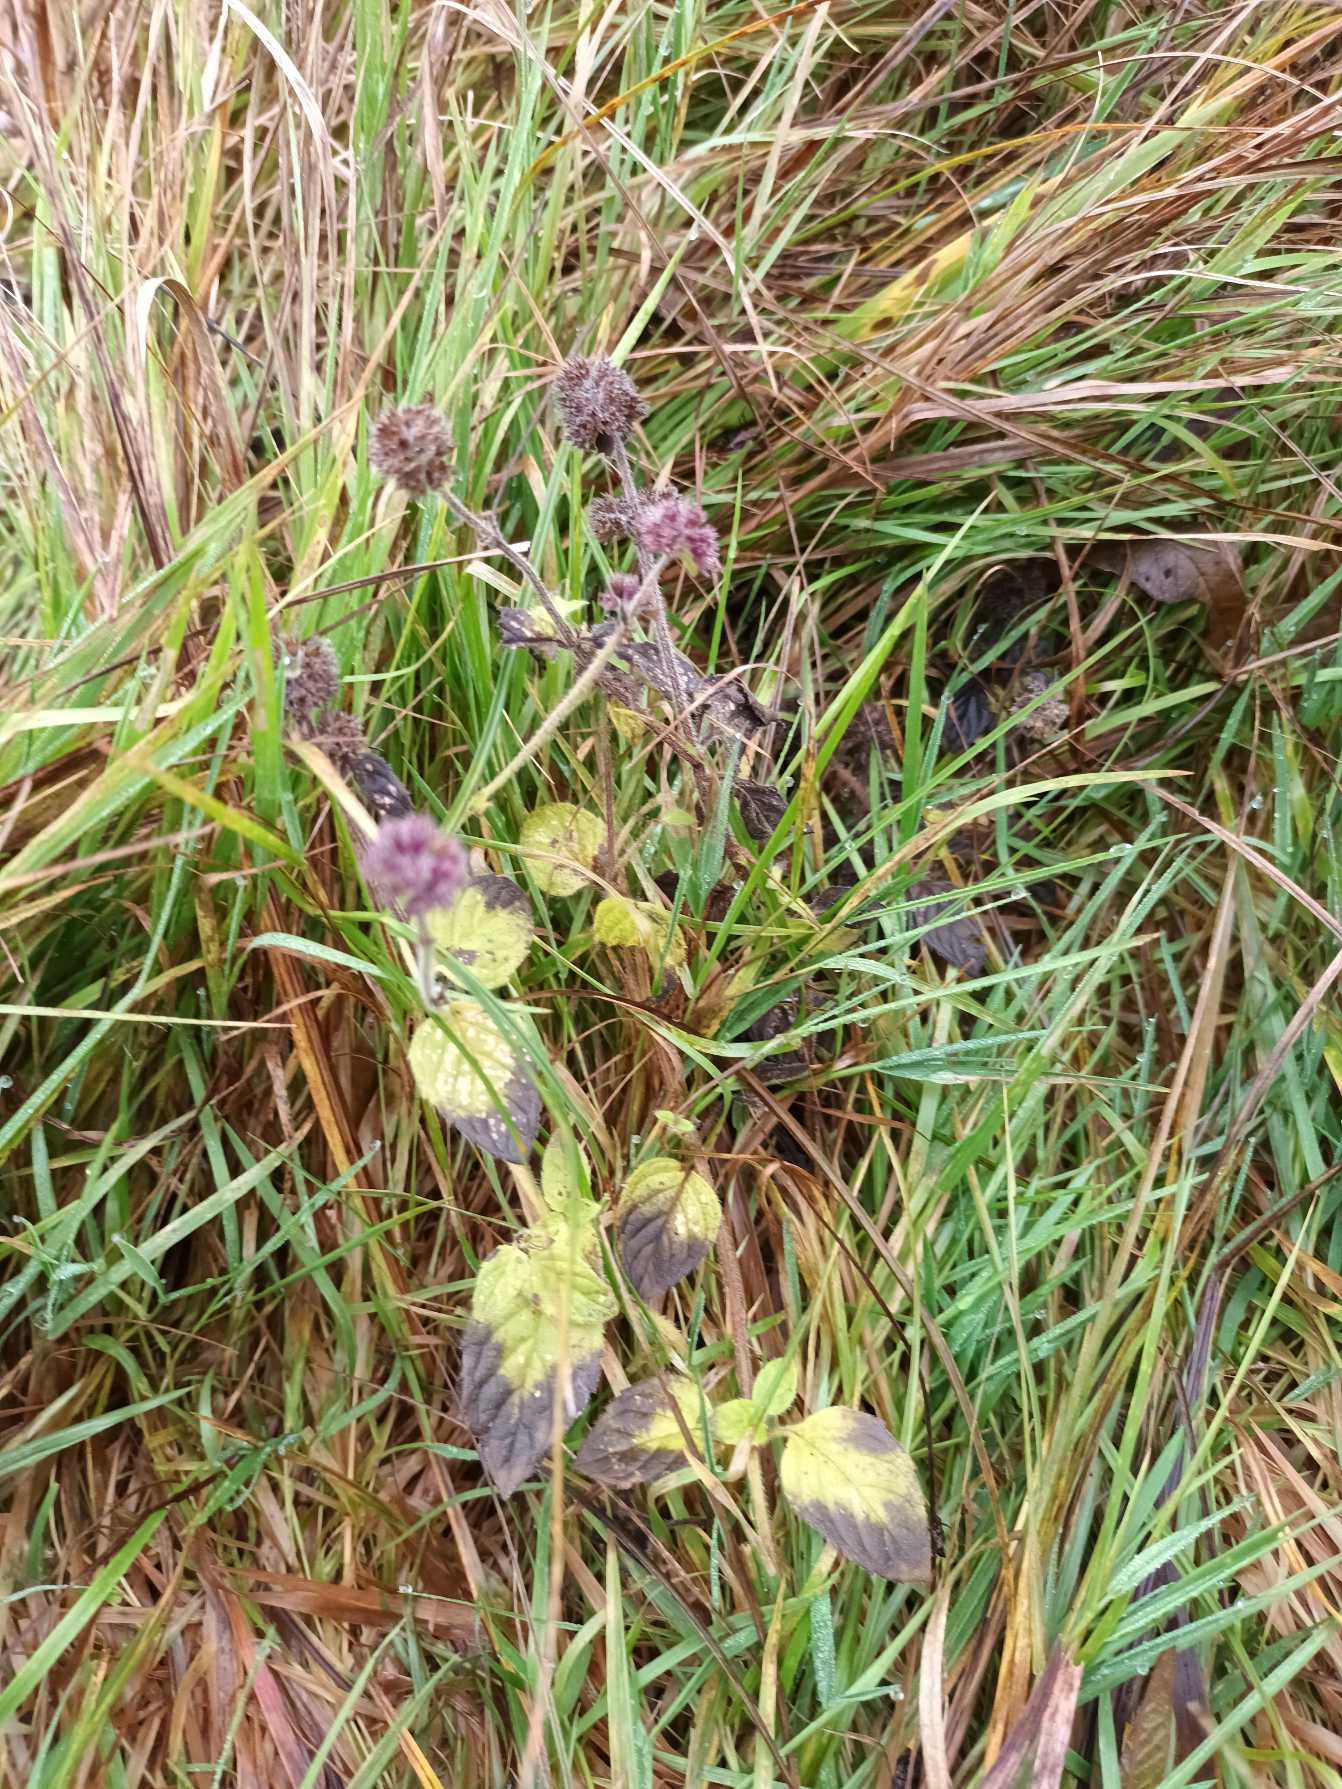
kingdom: Plantae
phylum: Tracheophyta
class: Magnoliopsida
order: Lamiales
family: Lamiaceae
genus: Mentha
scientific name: Mentha aquatica
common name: Vand-mynte
